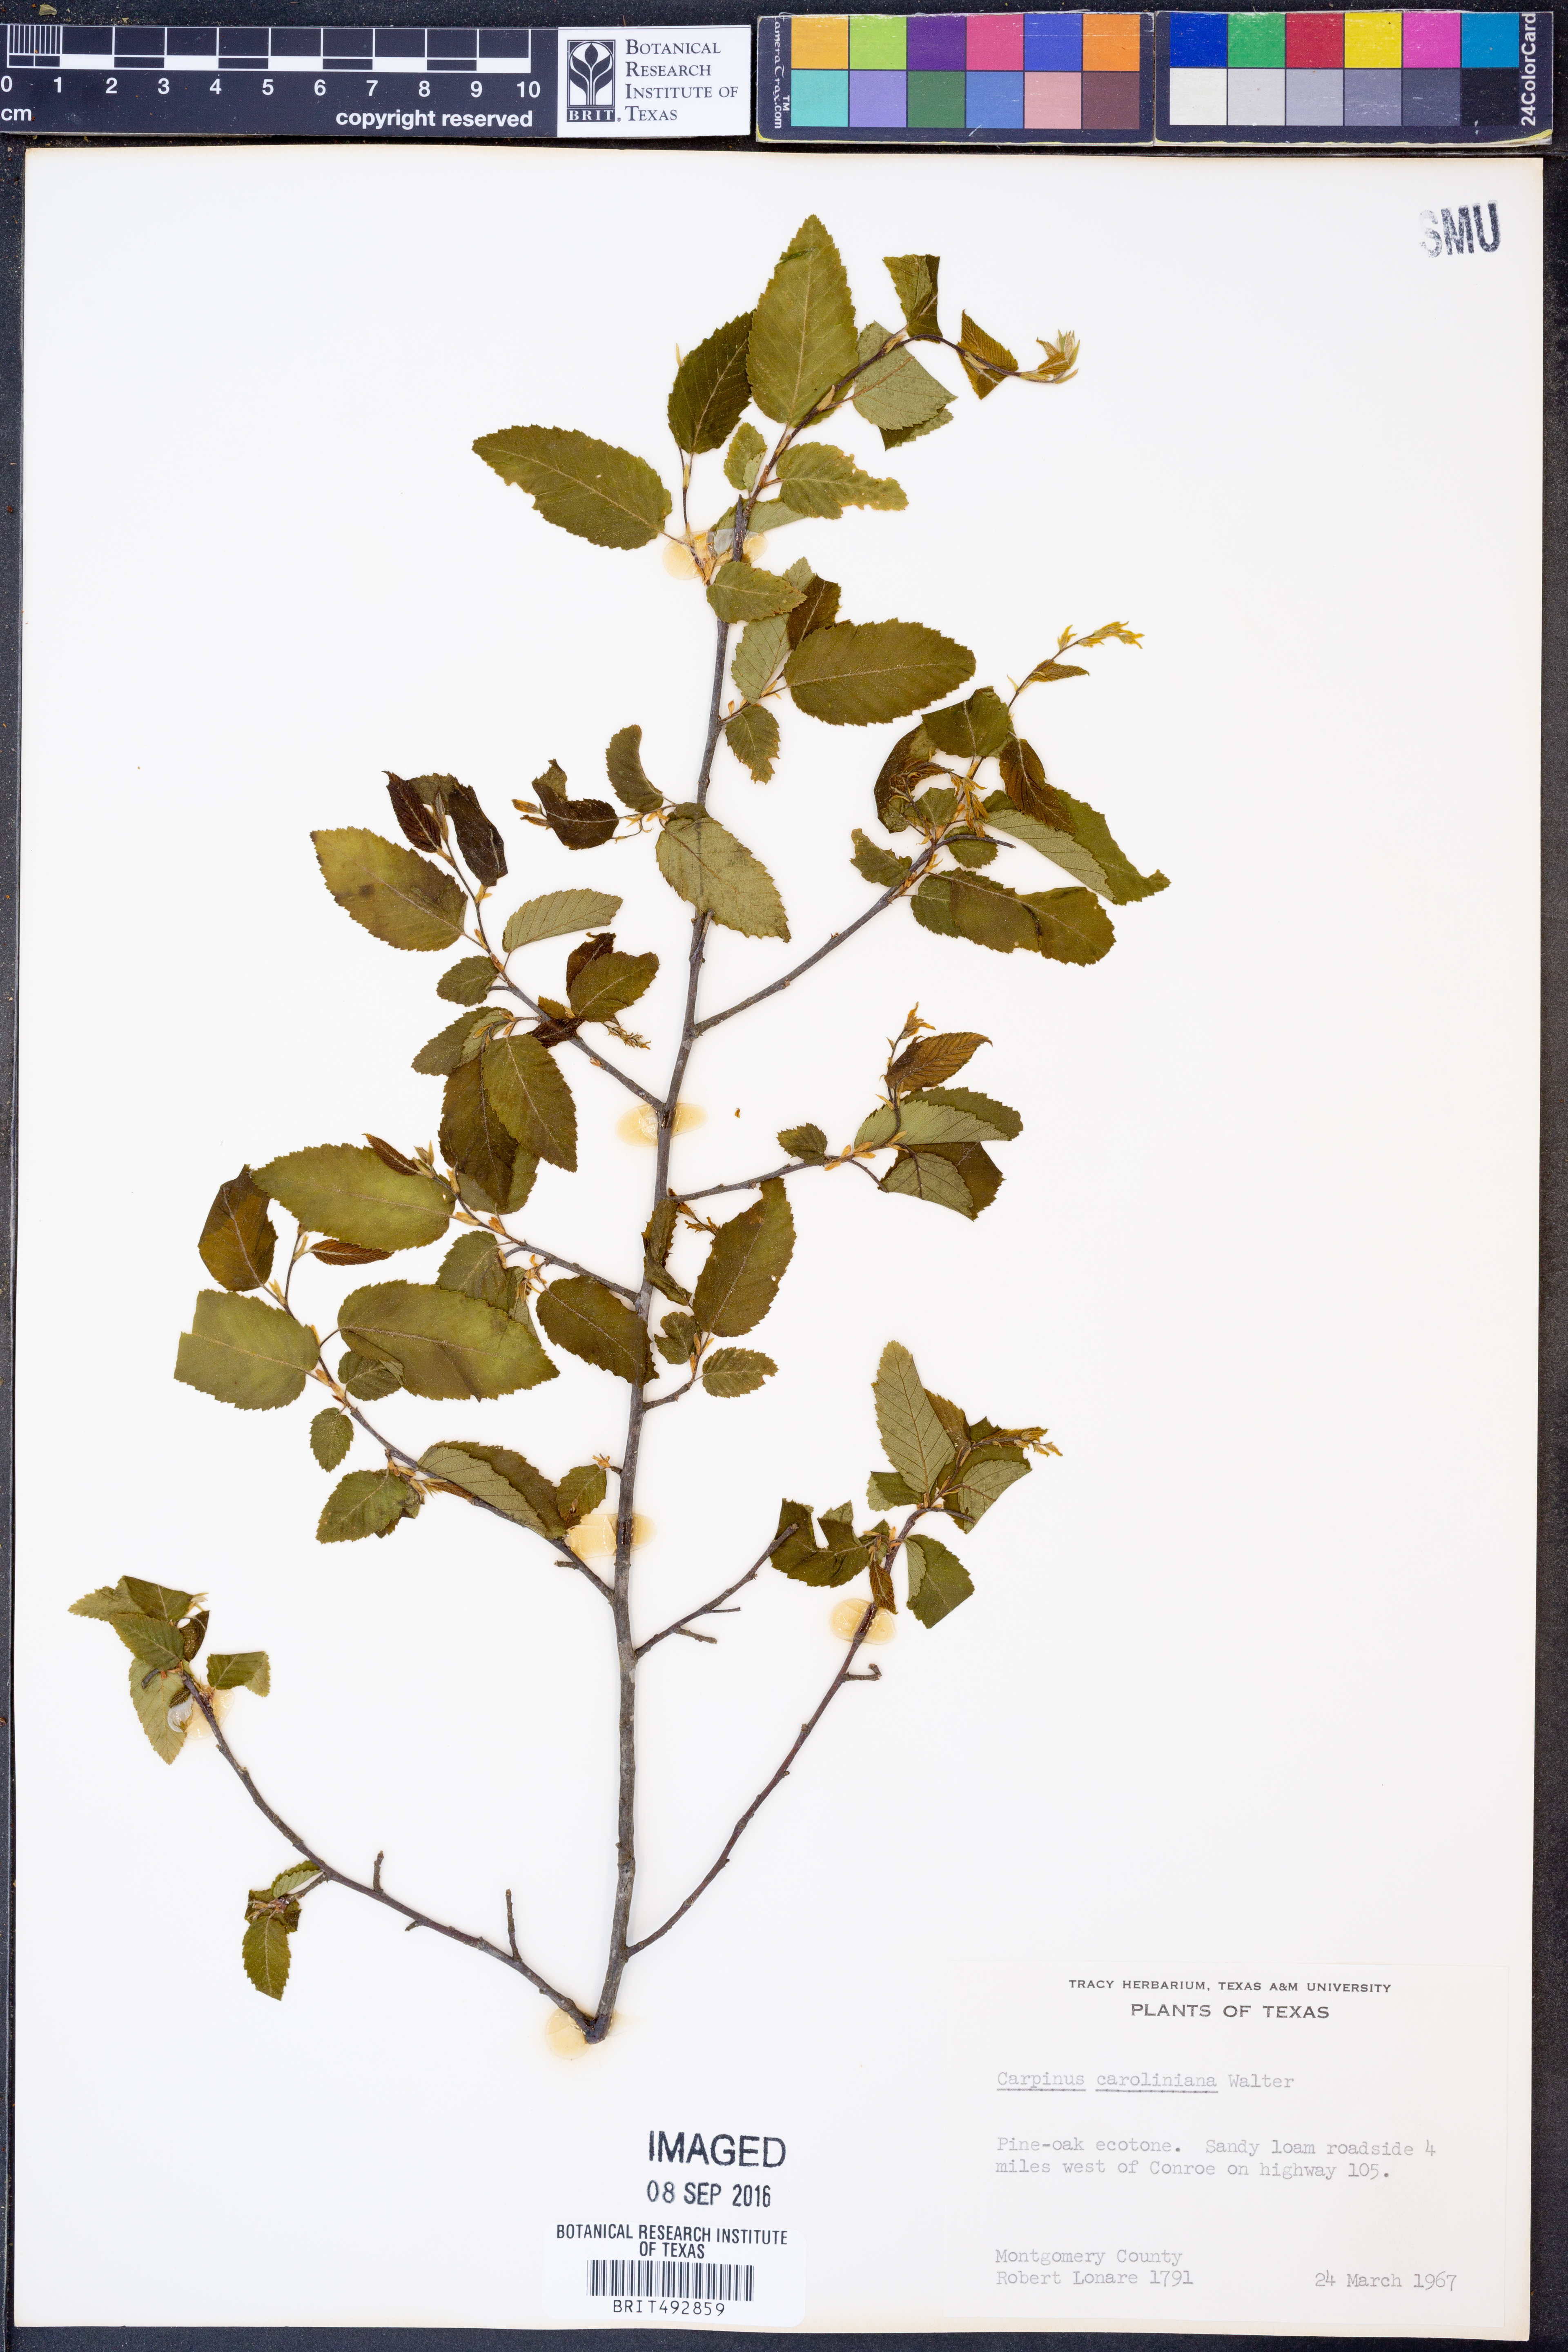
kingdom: Plantae
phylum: Tracheophyta
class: Magnoliopsida
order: Fagales
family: Betulaceae
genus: Carpinus
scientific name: Carpinus caroliniana
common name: American hornbeam
